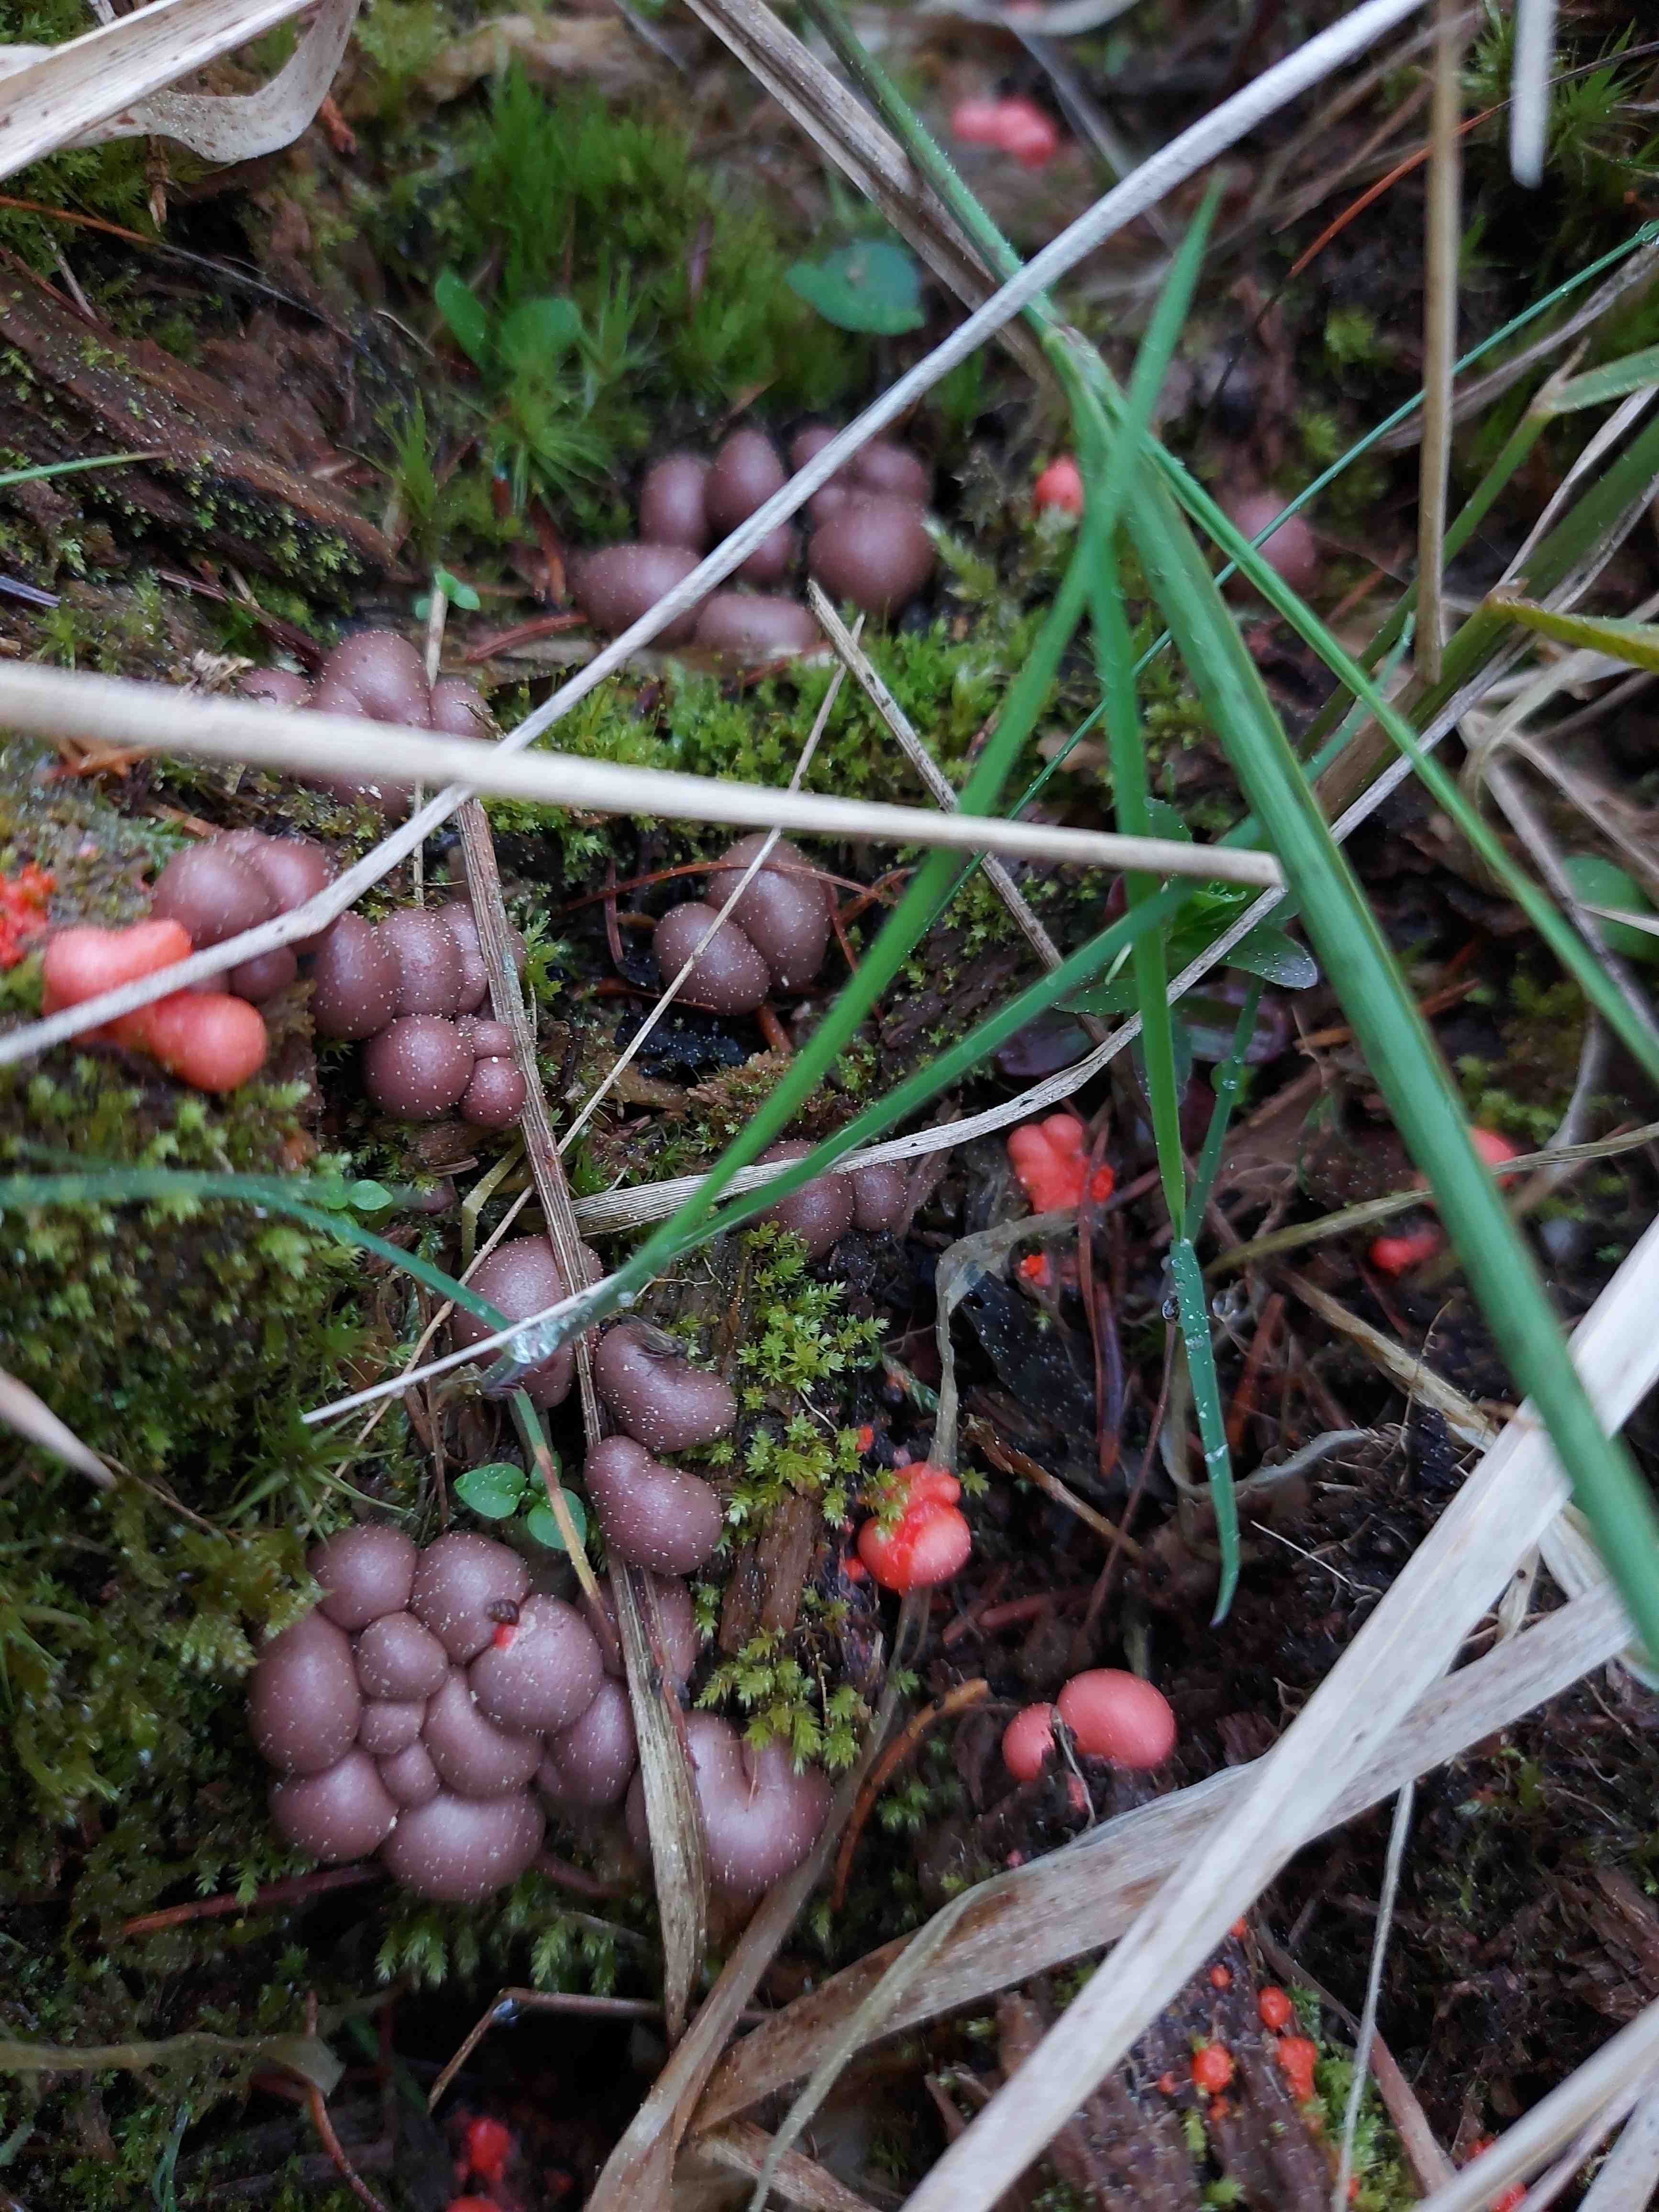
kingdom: Protozoa
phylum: Mycetozoa
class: Myxomycetes
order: Cribrariales
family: Tubiferaceae
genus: Lycogala
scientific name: Lycogala epidendrum
